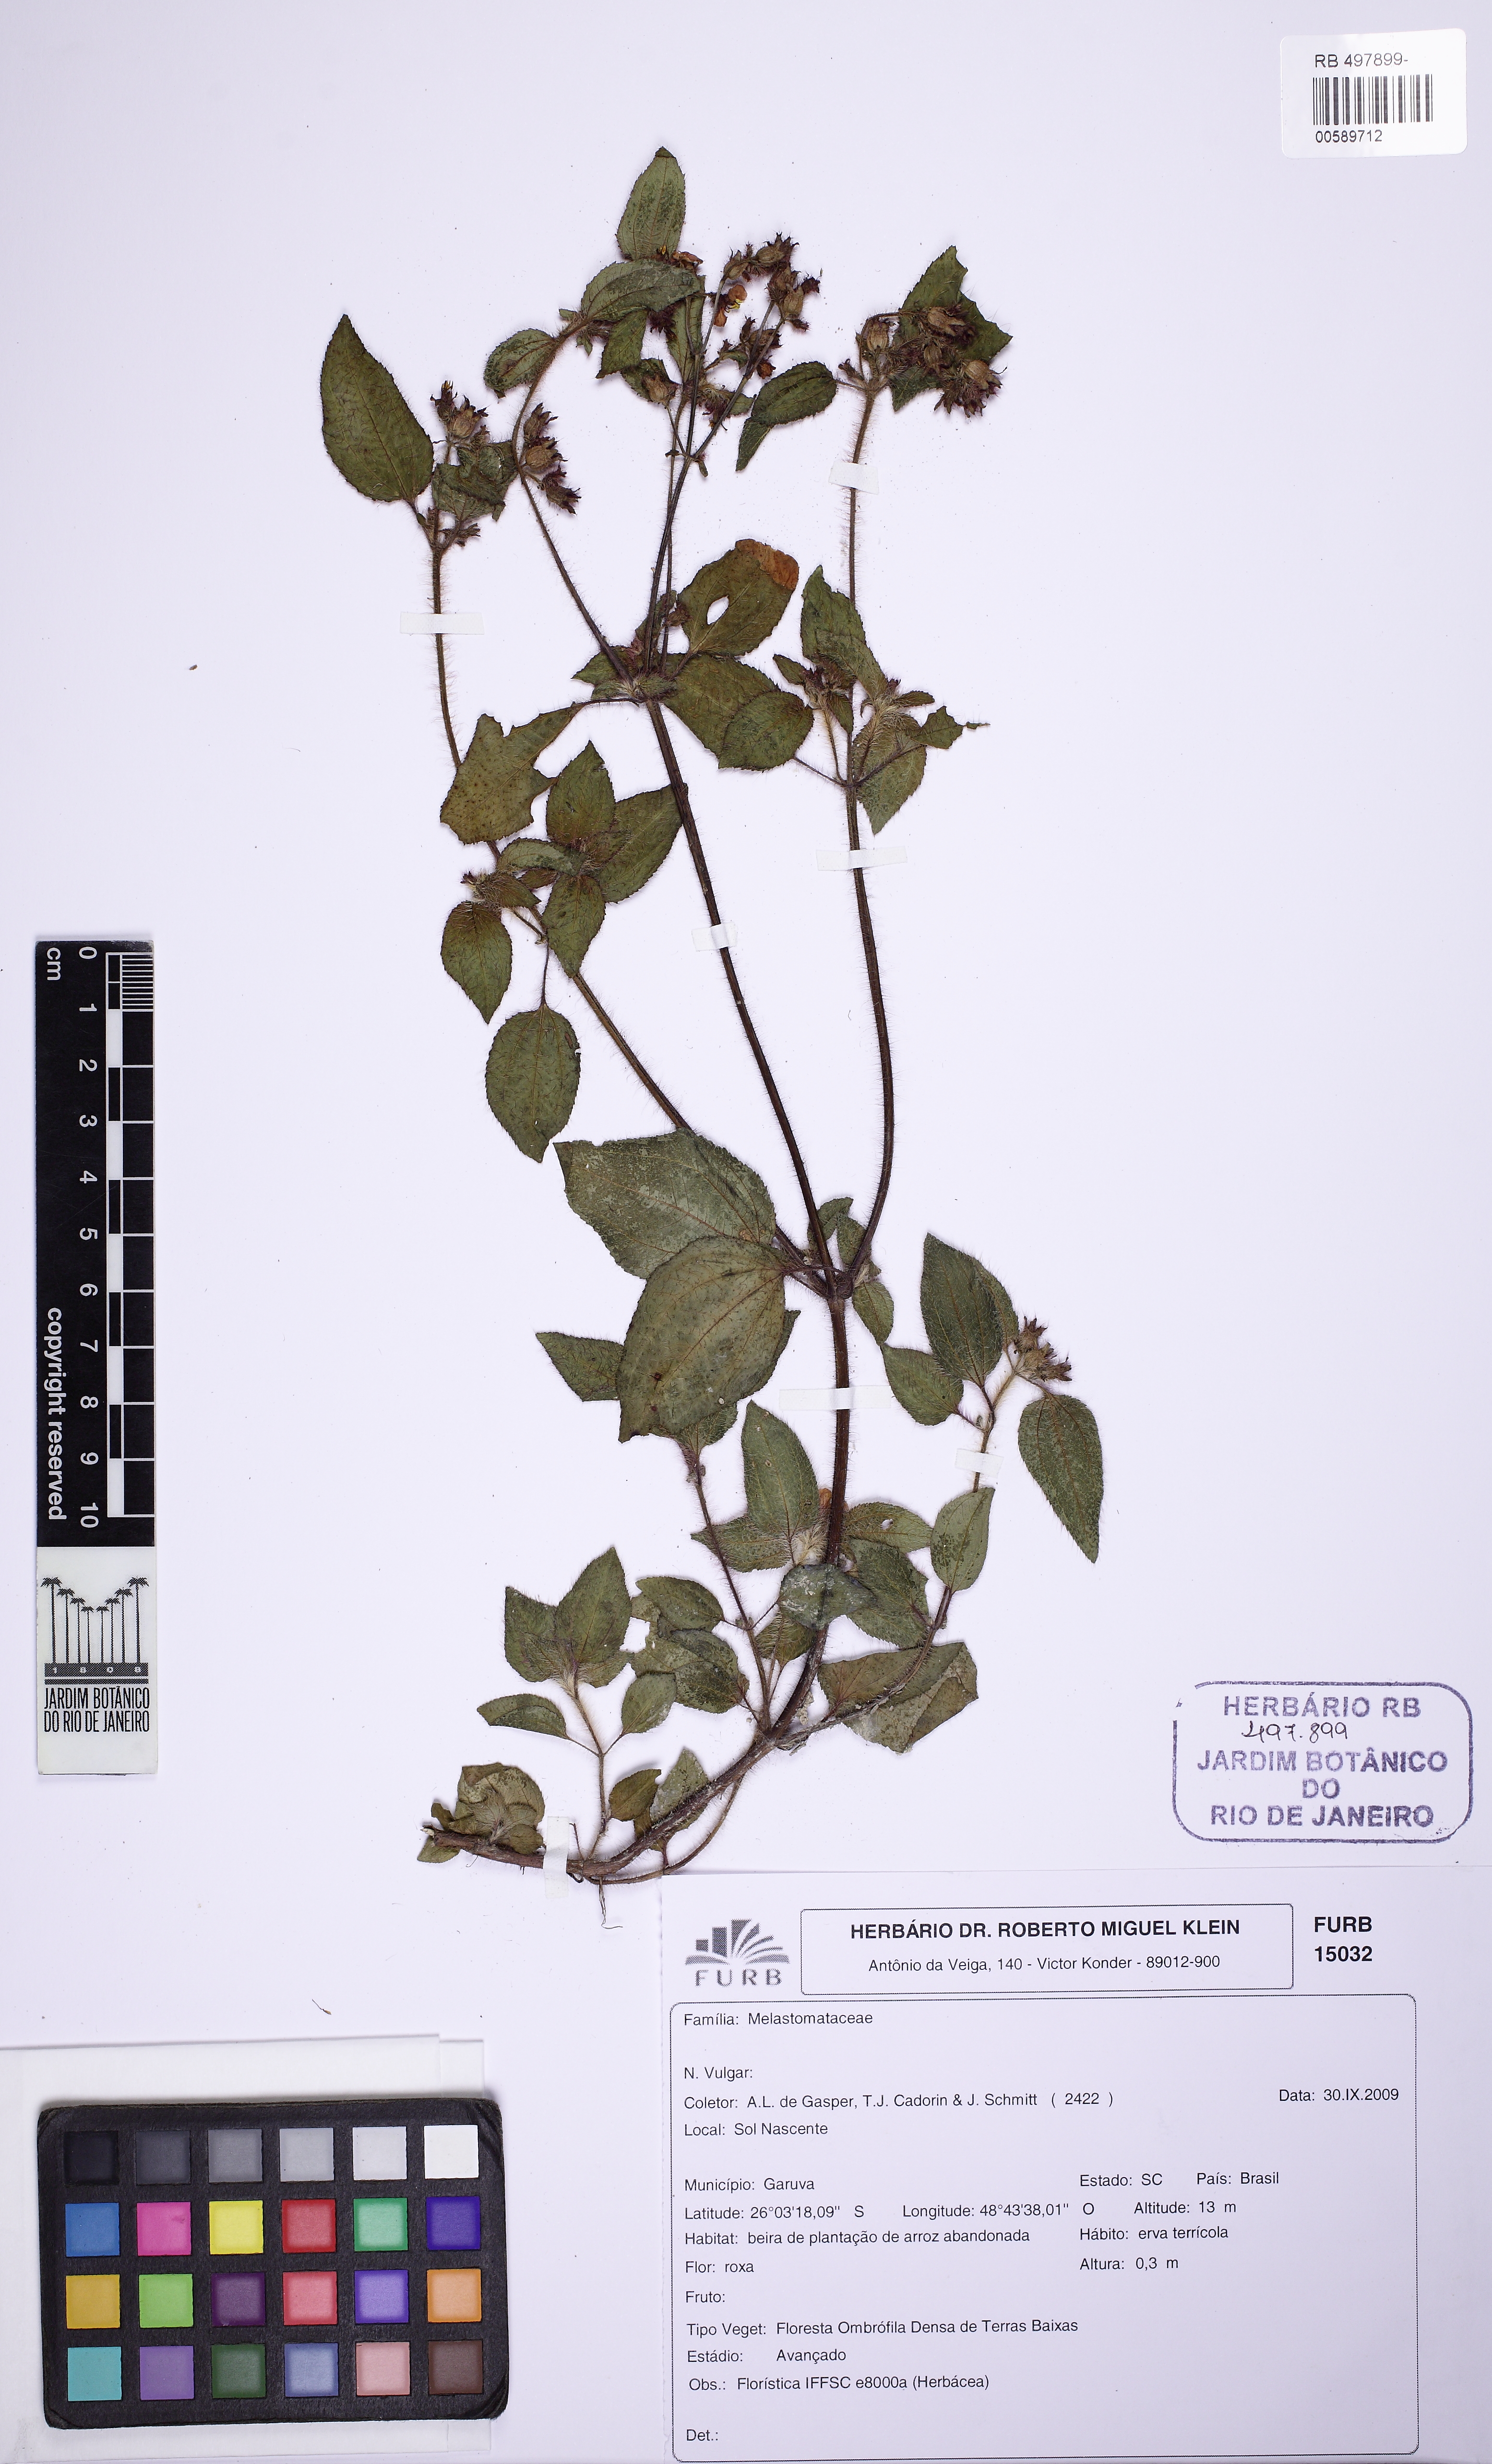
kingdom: Plantae
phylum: Tracheophyta
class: Magnoliopsida
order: Myrtales
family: Melastomataceae
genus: Tibouchina
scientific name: Tibouchina
